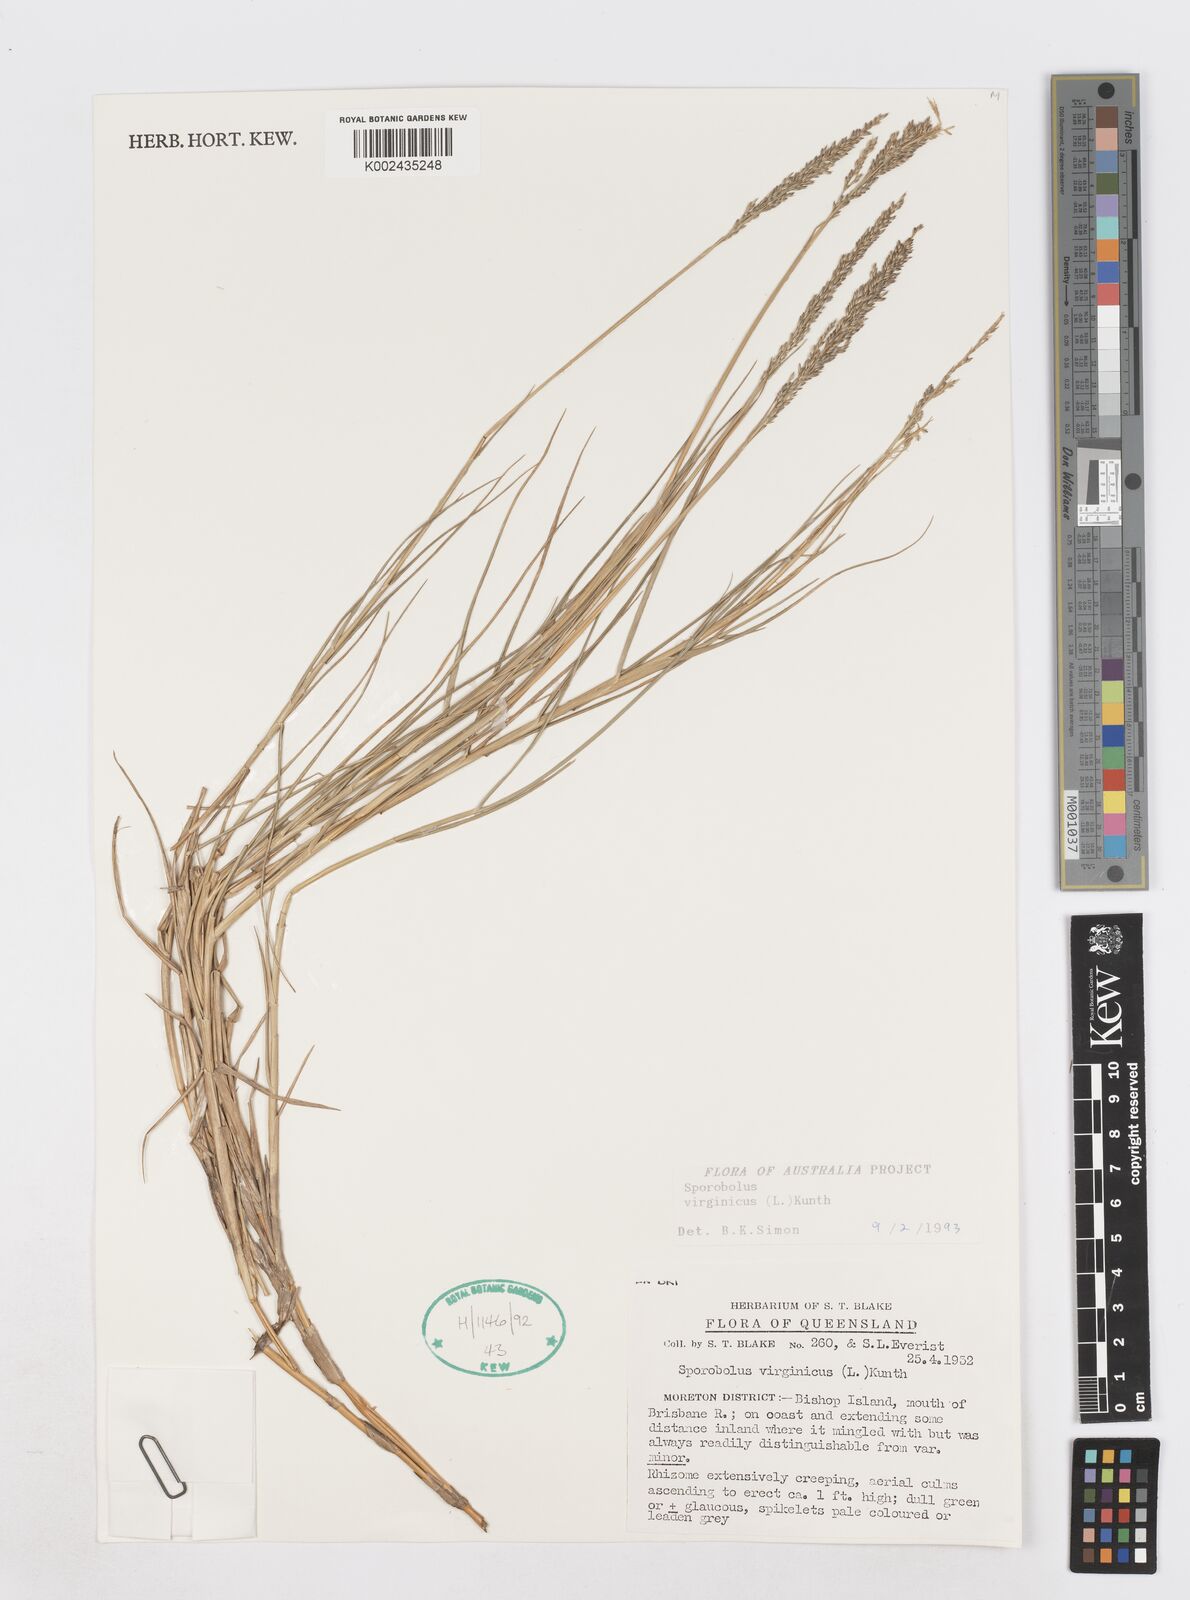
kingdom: Plantae
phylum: Tracheophyta
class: Liliopsida
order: Poales
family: Poaceae
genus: Sporobolus
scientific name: Sporobolus virginicus
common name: Beach dropseed
